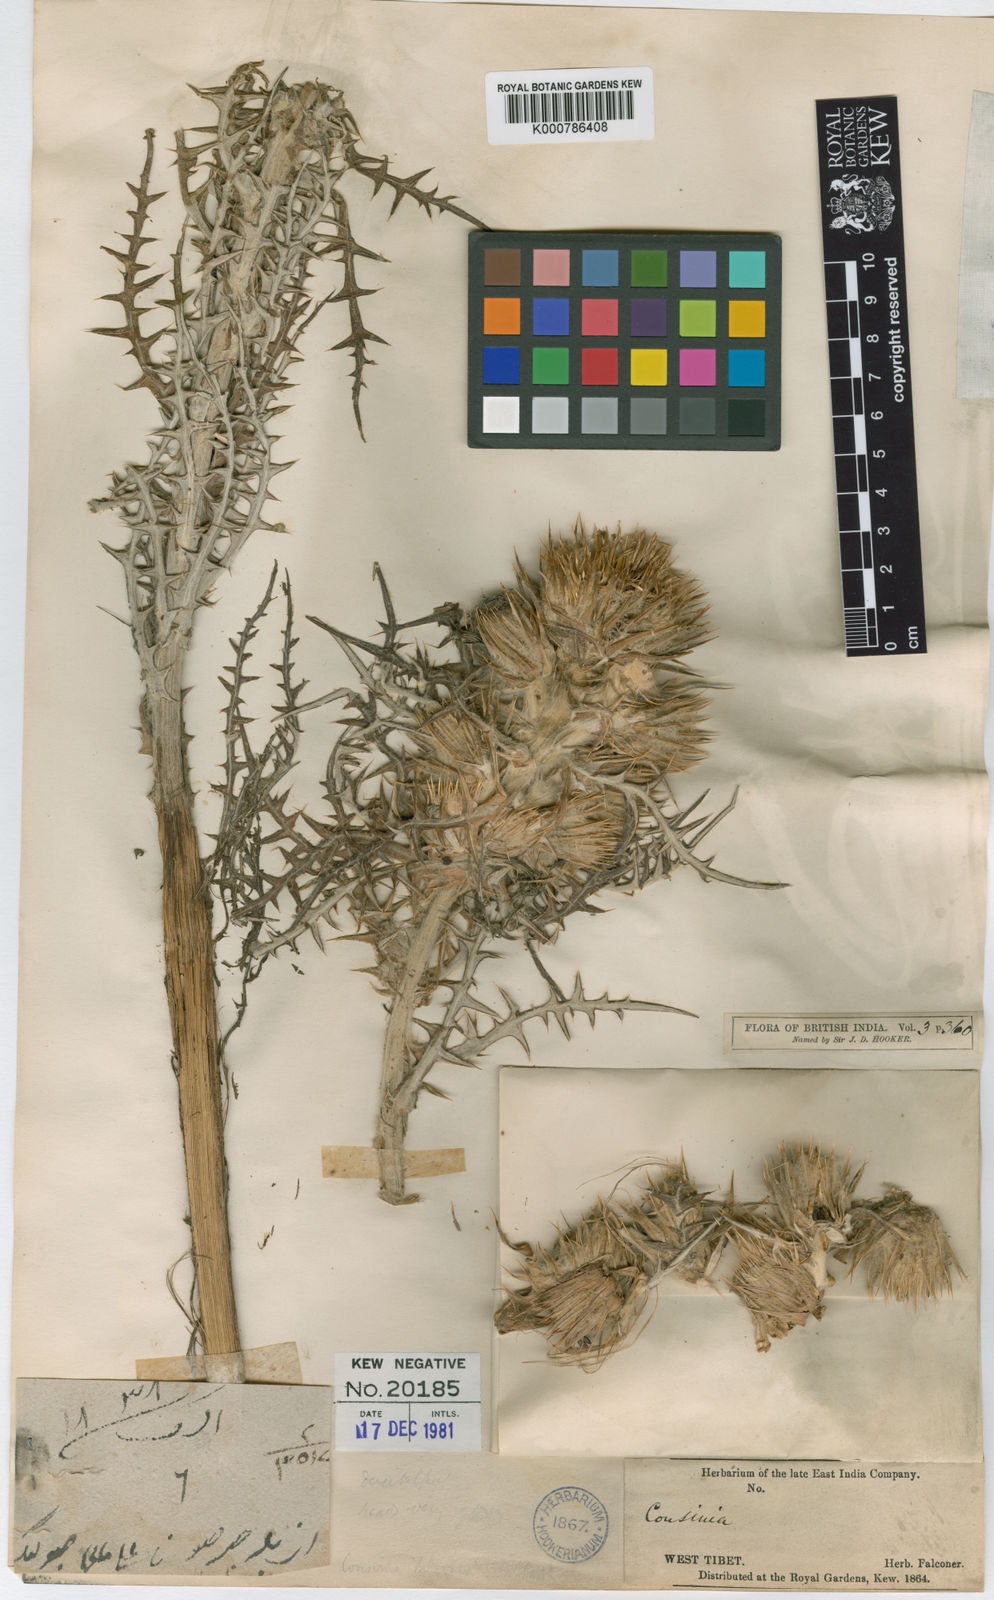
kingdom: Plantae
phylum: Tracheophyta
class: Magnoliopsida
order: Asterales
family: Asteraceae
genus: Cousinia
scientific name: Cousinia falconeri
